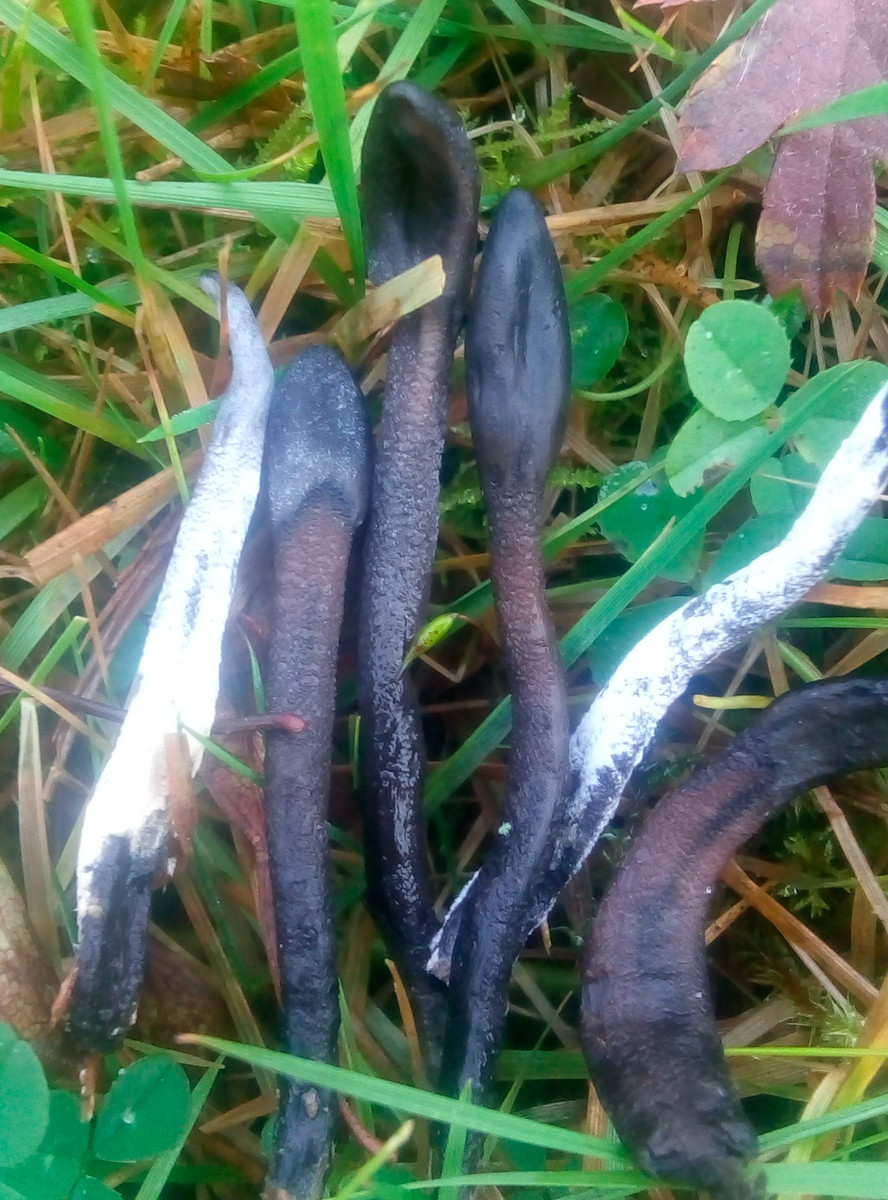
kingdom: Fungi
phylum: Ascomycota
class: Geoglossomycetes
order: Geoglossales
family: Geoglossaceae
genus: Geoglossum
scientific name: Geoglossum
